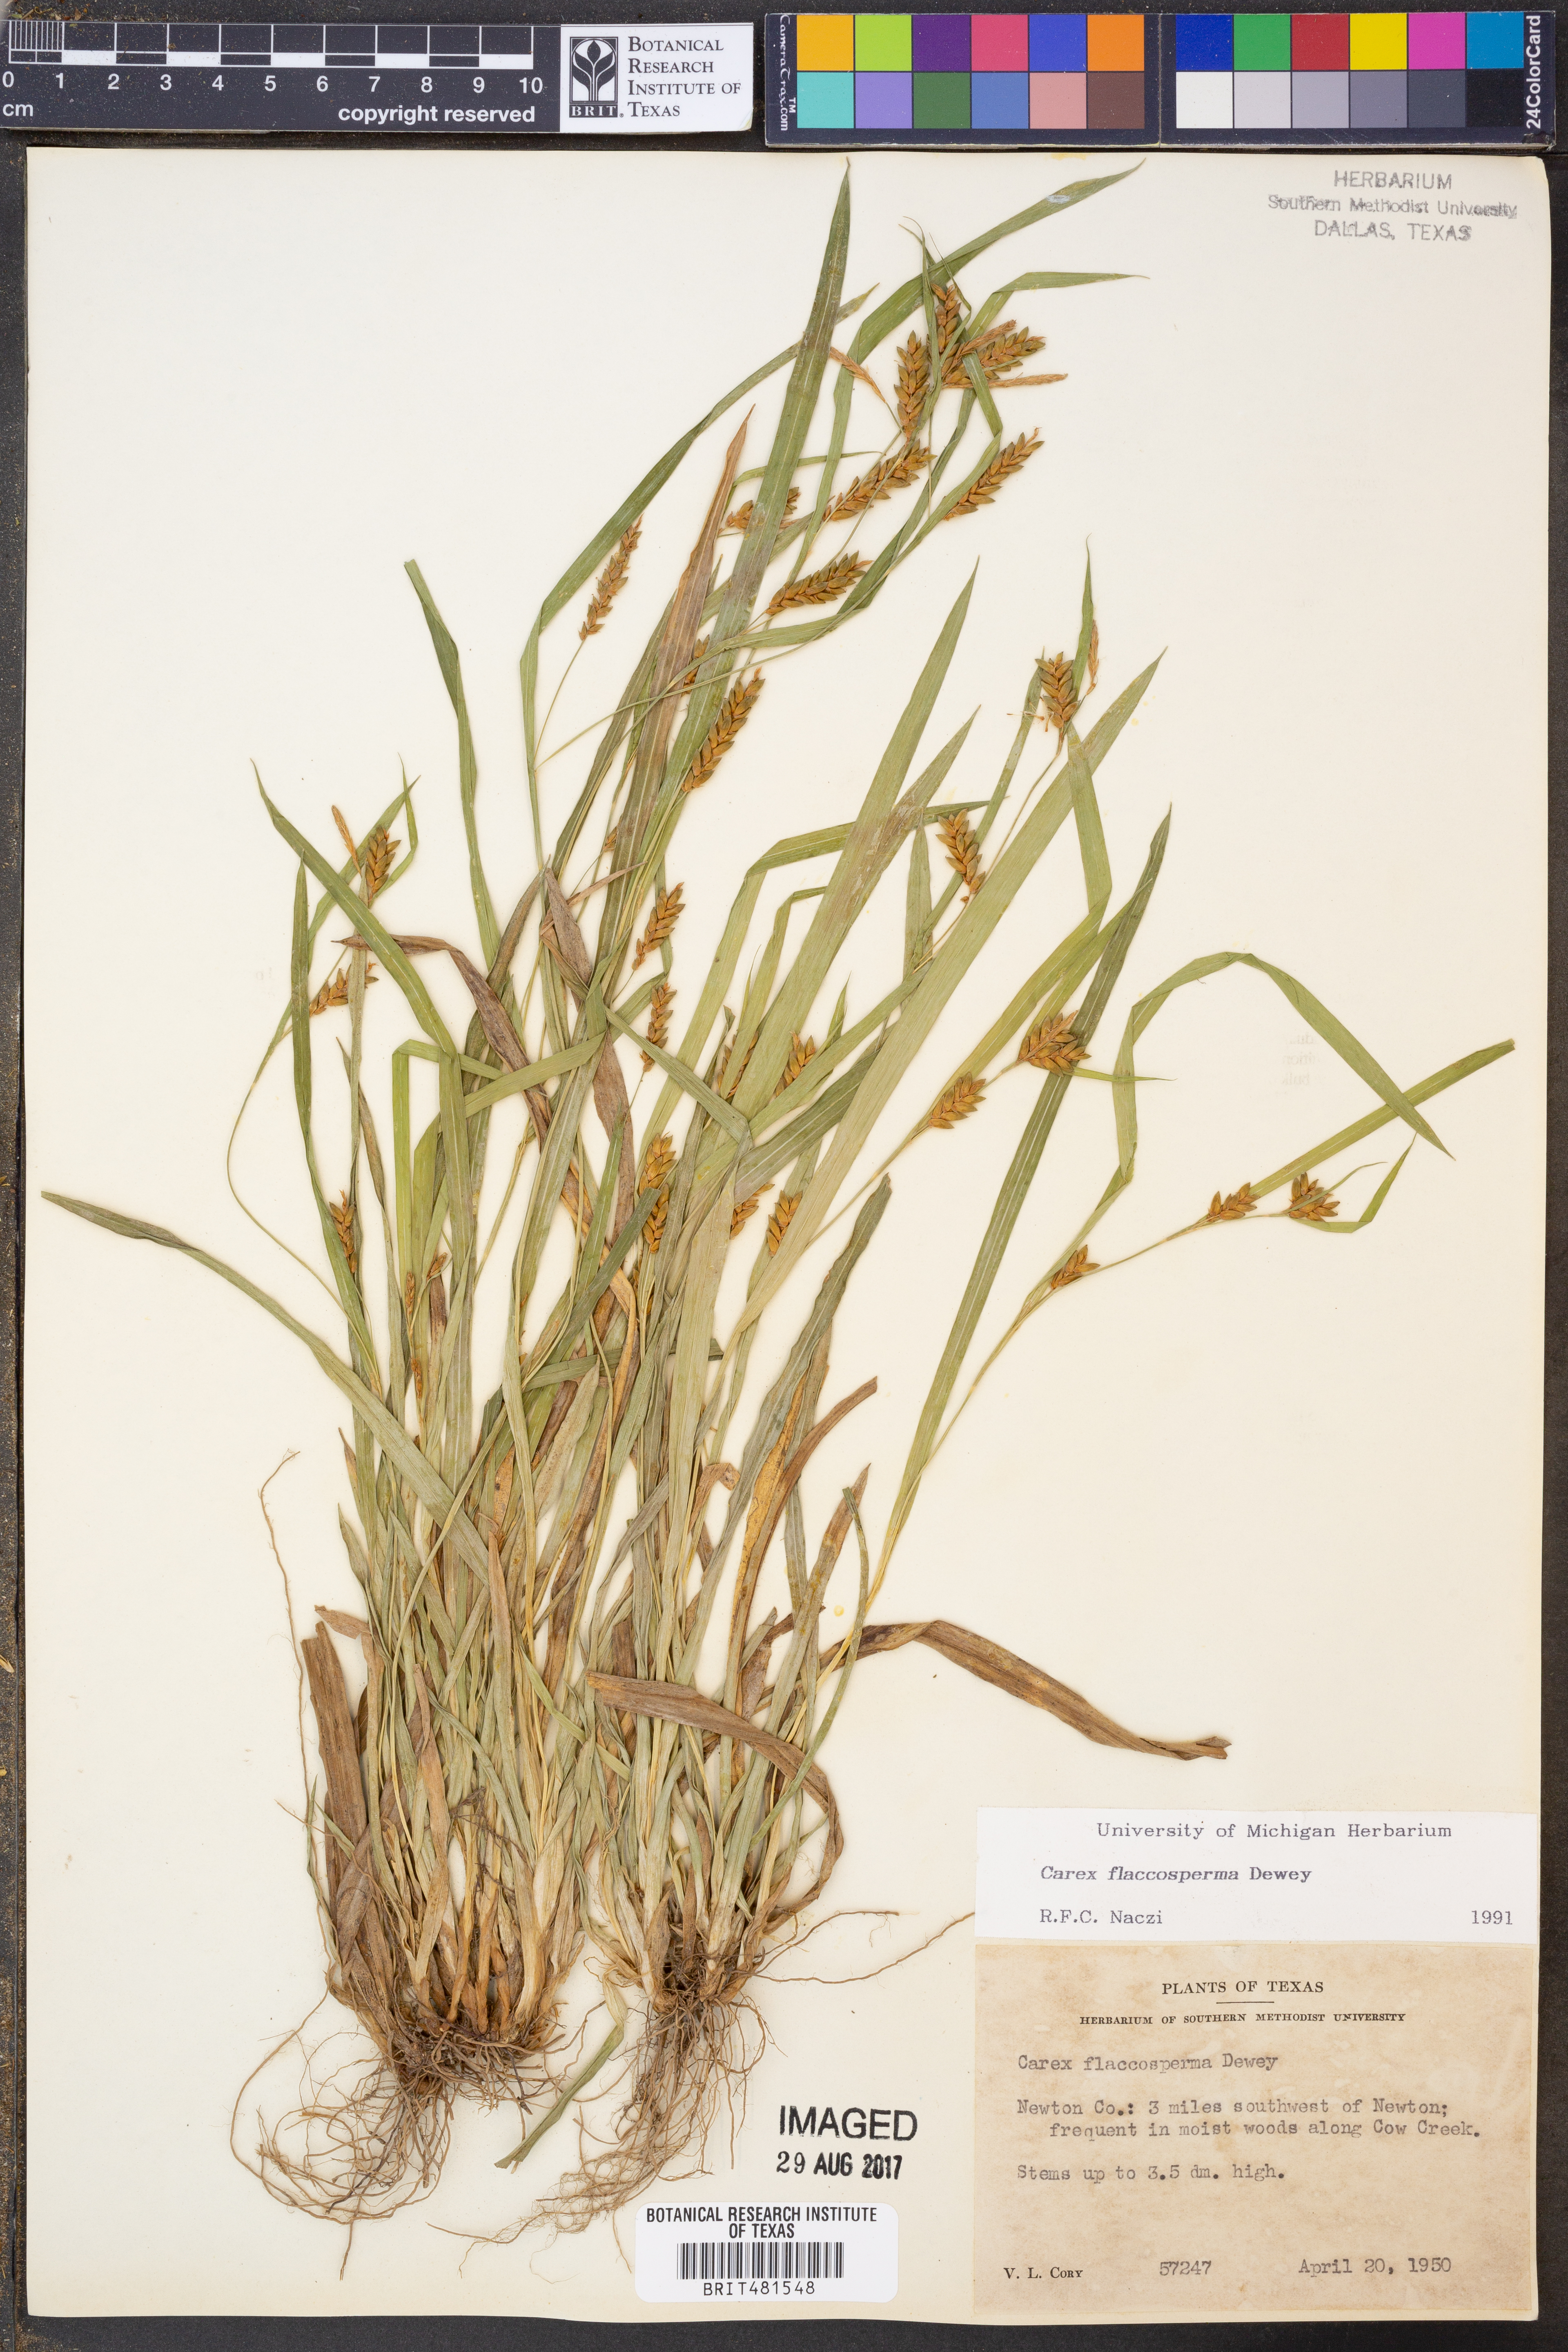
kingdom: Plantae
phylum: Tracheophyta
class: Liliopsida
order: Poales
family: Cyperaceae
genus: Carex
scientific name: Carex flaccosperma
